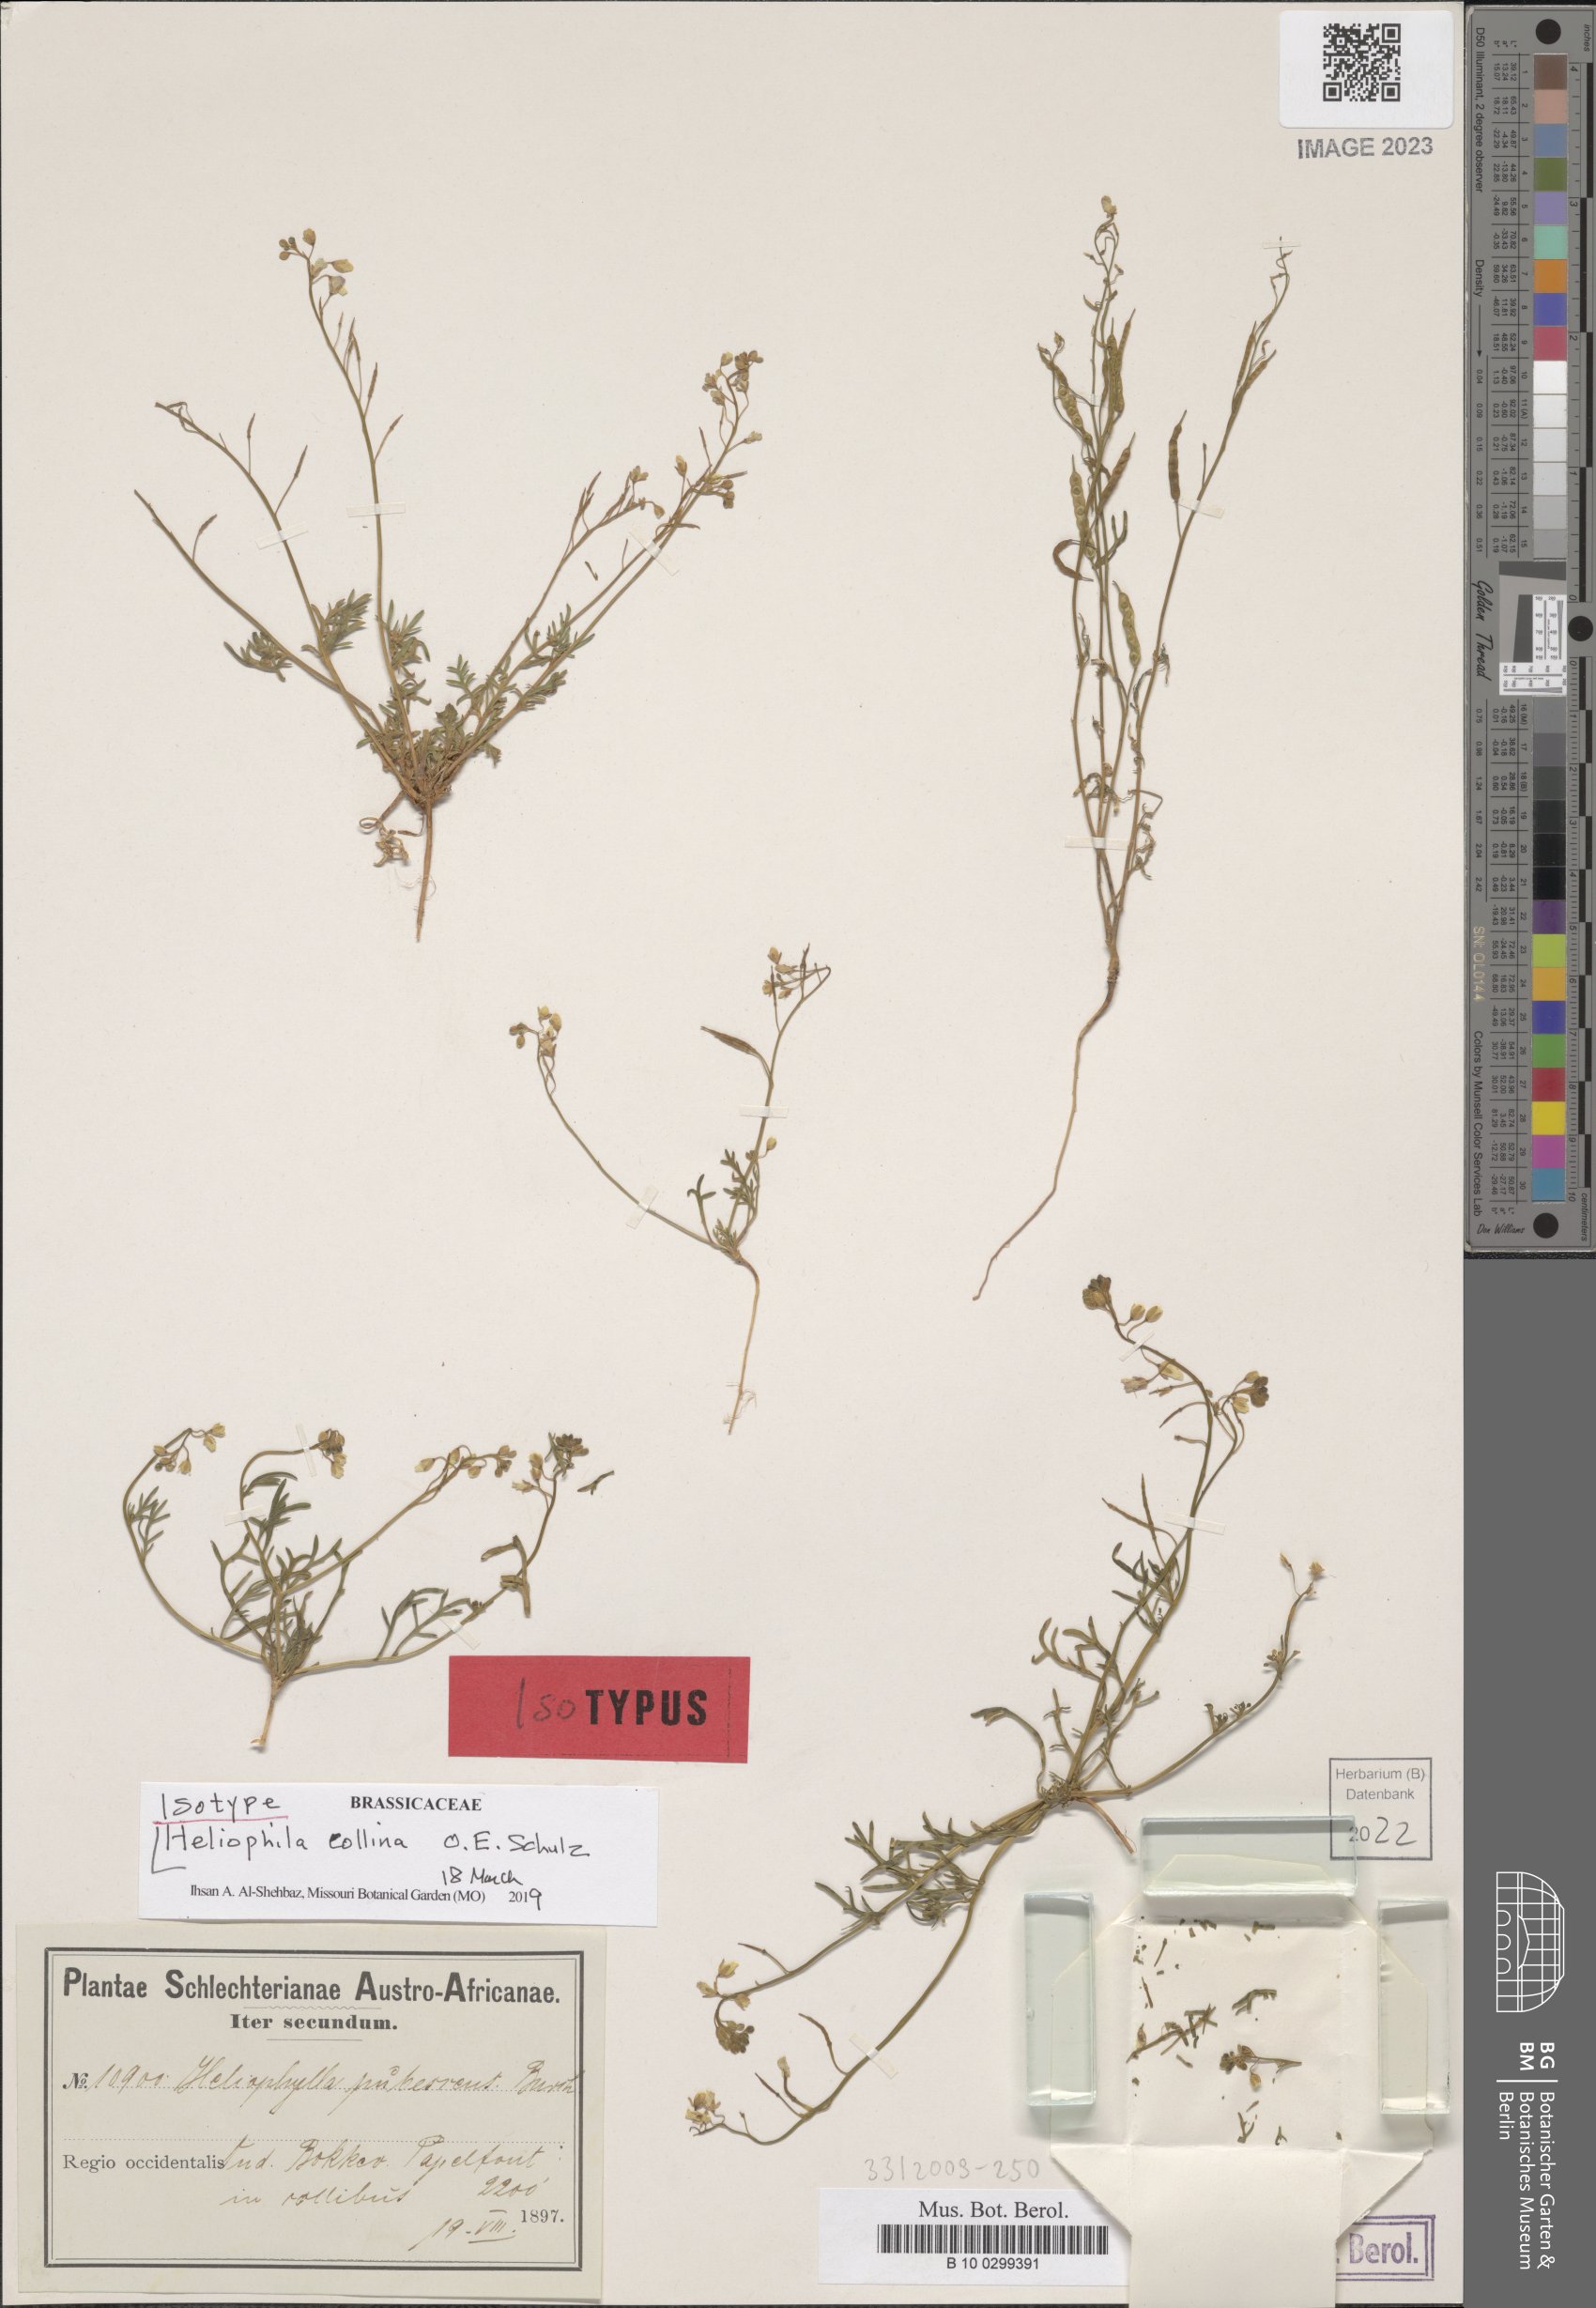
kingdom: Plantae
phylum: Tracheophyta
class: Magnoliopsida
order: Brassicales
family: Brassicaceae
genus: Heliophila
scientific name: Heliophila collina
